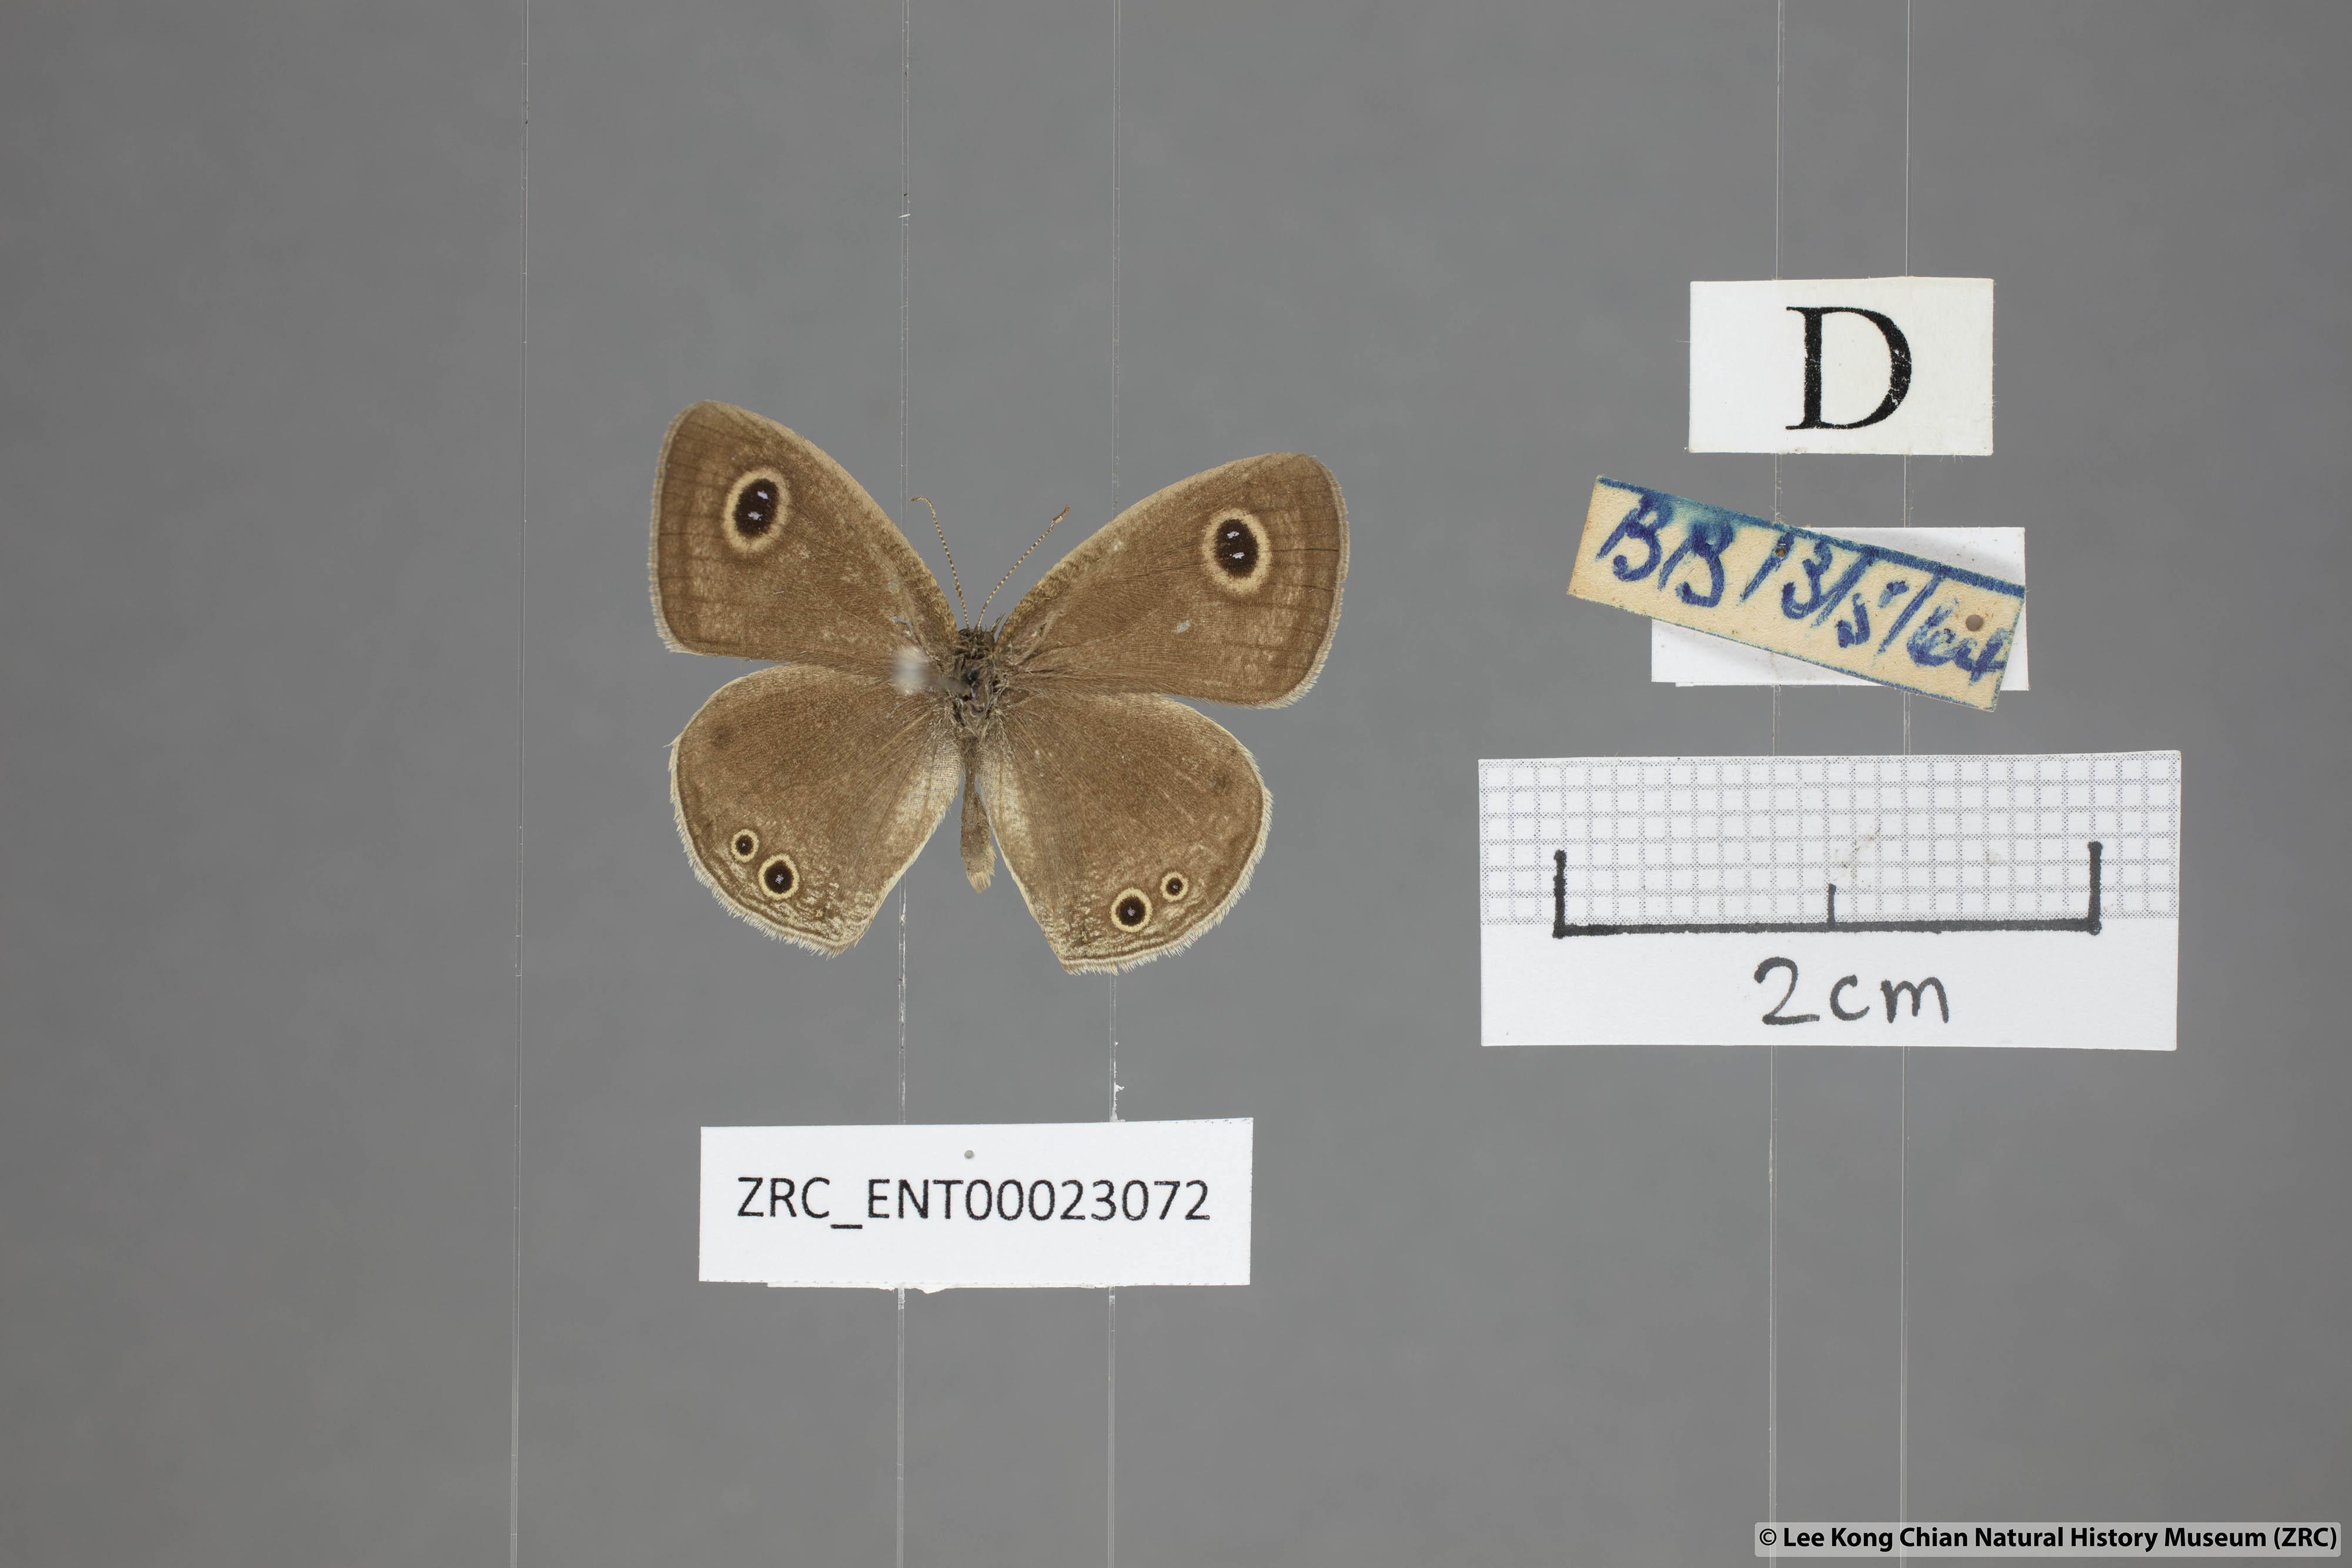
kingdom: Animalia
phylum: Arthropoda
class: Insecta
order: Lepidoptera
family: Nymphalidae
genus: Ypthima
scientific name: Ypthima huebneri
